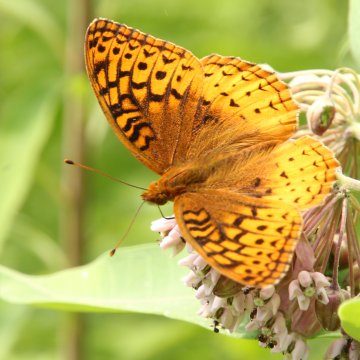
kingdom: Animalia
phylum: Arthropoda
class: Insecta
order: Lepidoptera
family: Nymphalidae
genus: Speyeria
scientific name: Speyeria cybele
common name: Great Spangled Fritillary
